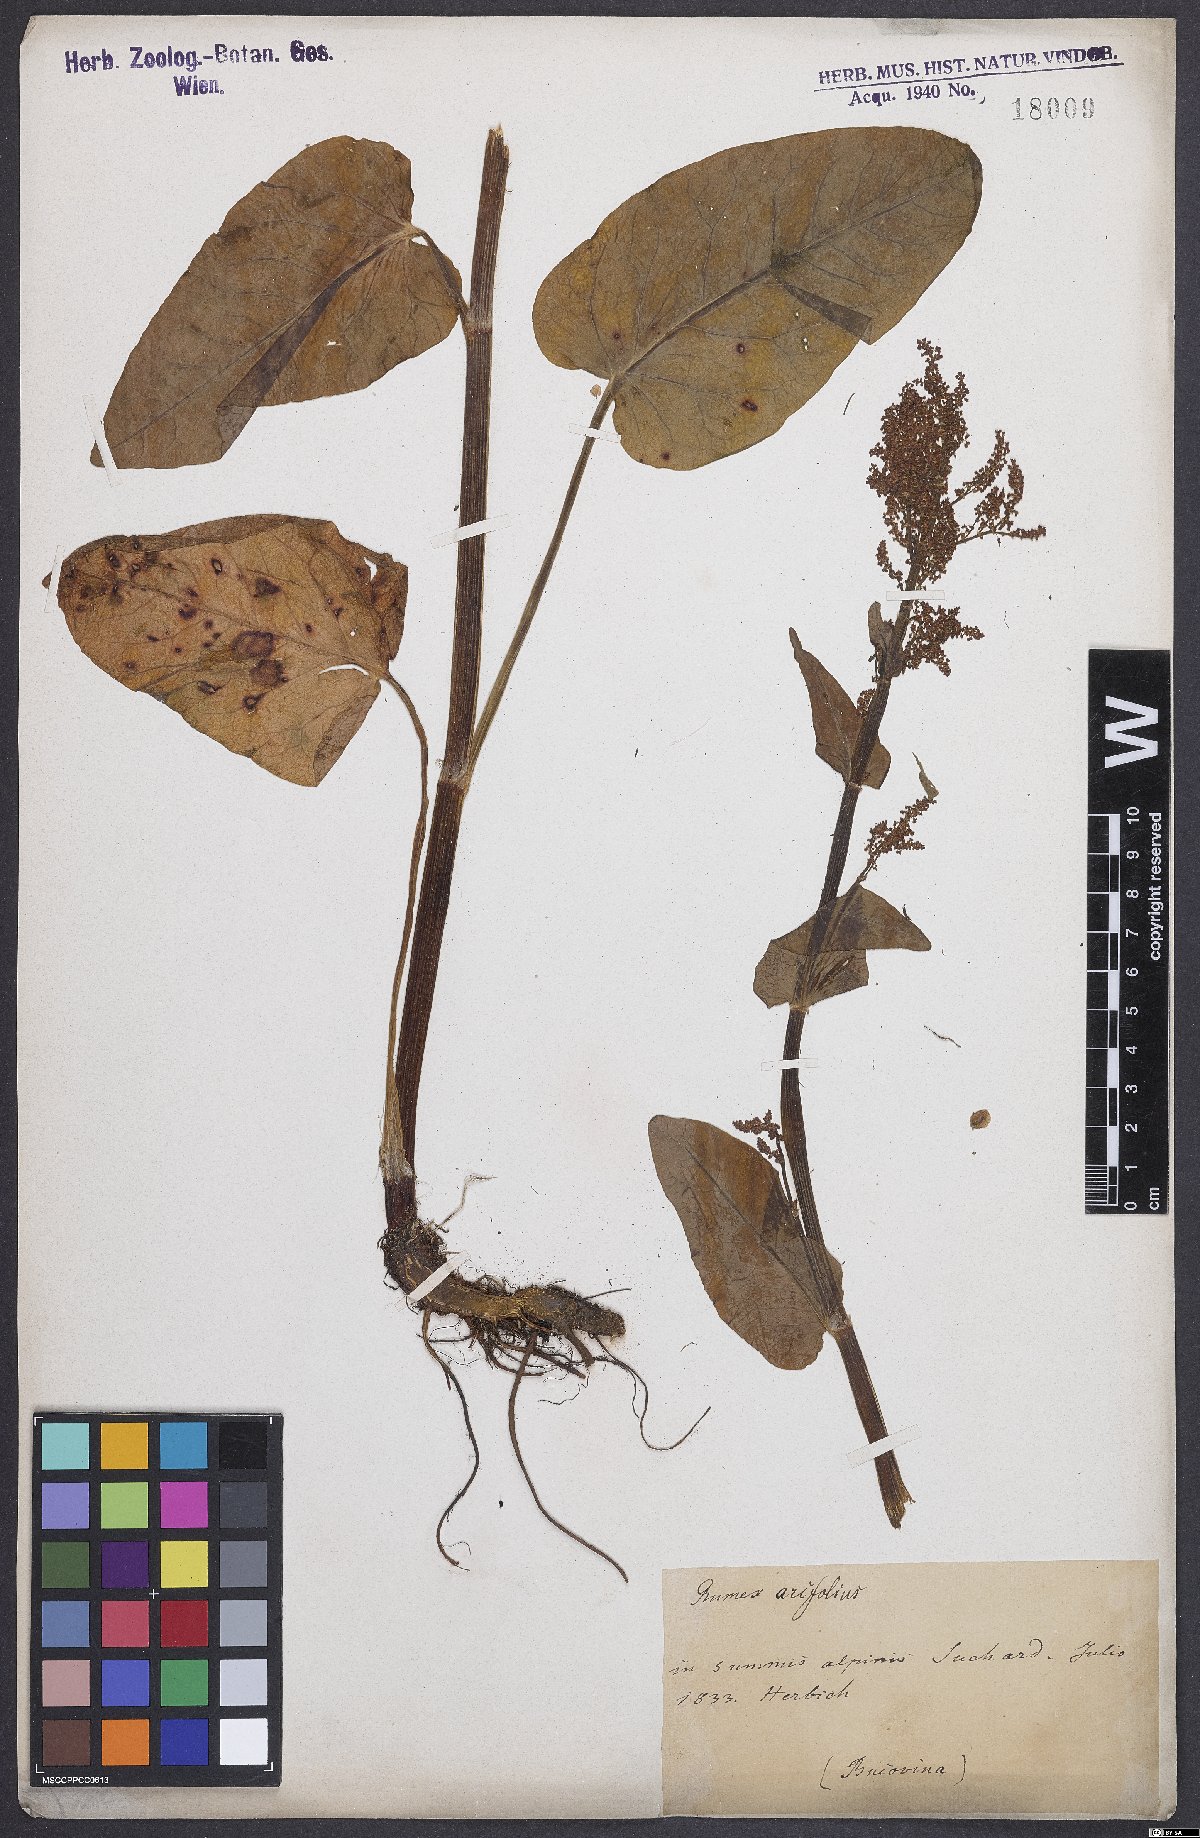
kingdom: Plantae
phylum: Tracheophyta
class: Magnoliopsida
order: Caryophyllales
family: Polygonaceae
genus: Rumex
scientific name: Rumex arifolius
